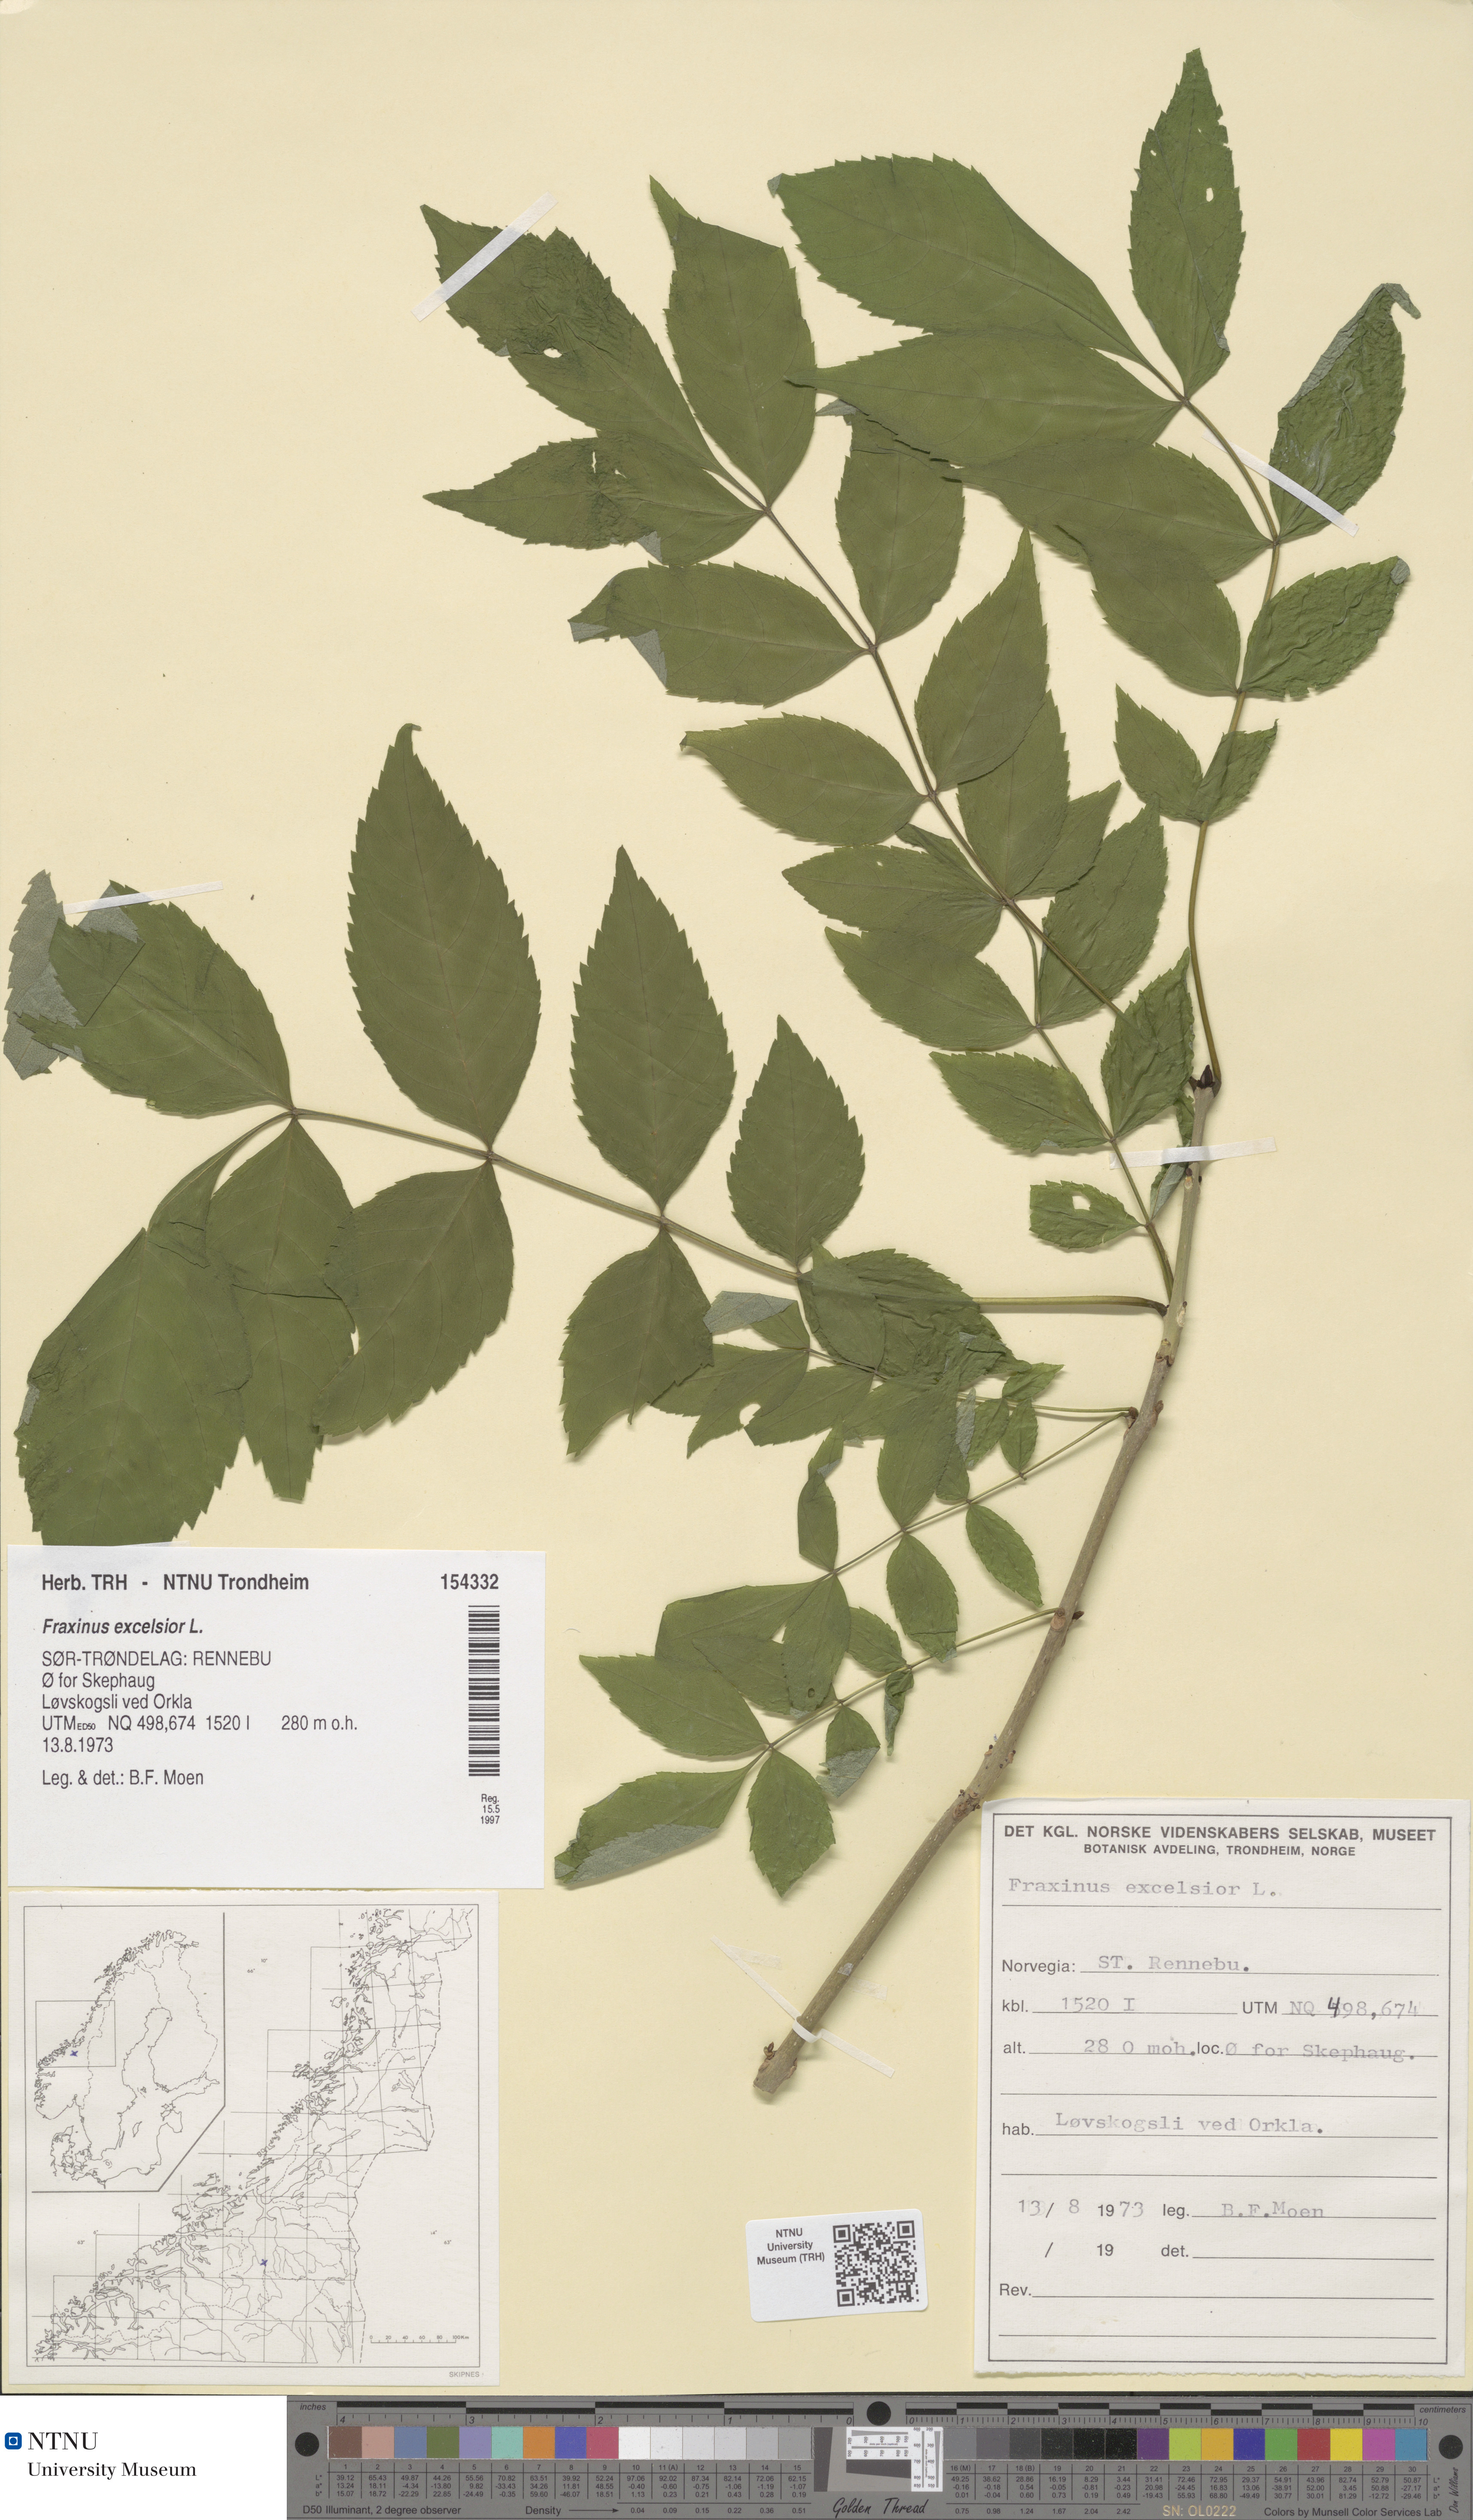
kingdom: Plantae
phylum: Tracheophyta
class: Magnoliopsida
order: Lamiales
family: Oleaceae
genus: Fraxinus
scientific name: Fraxinus excelsior
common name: European ash
